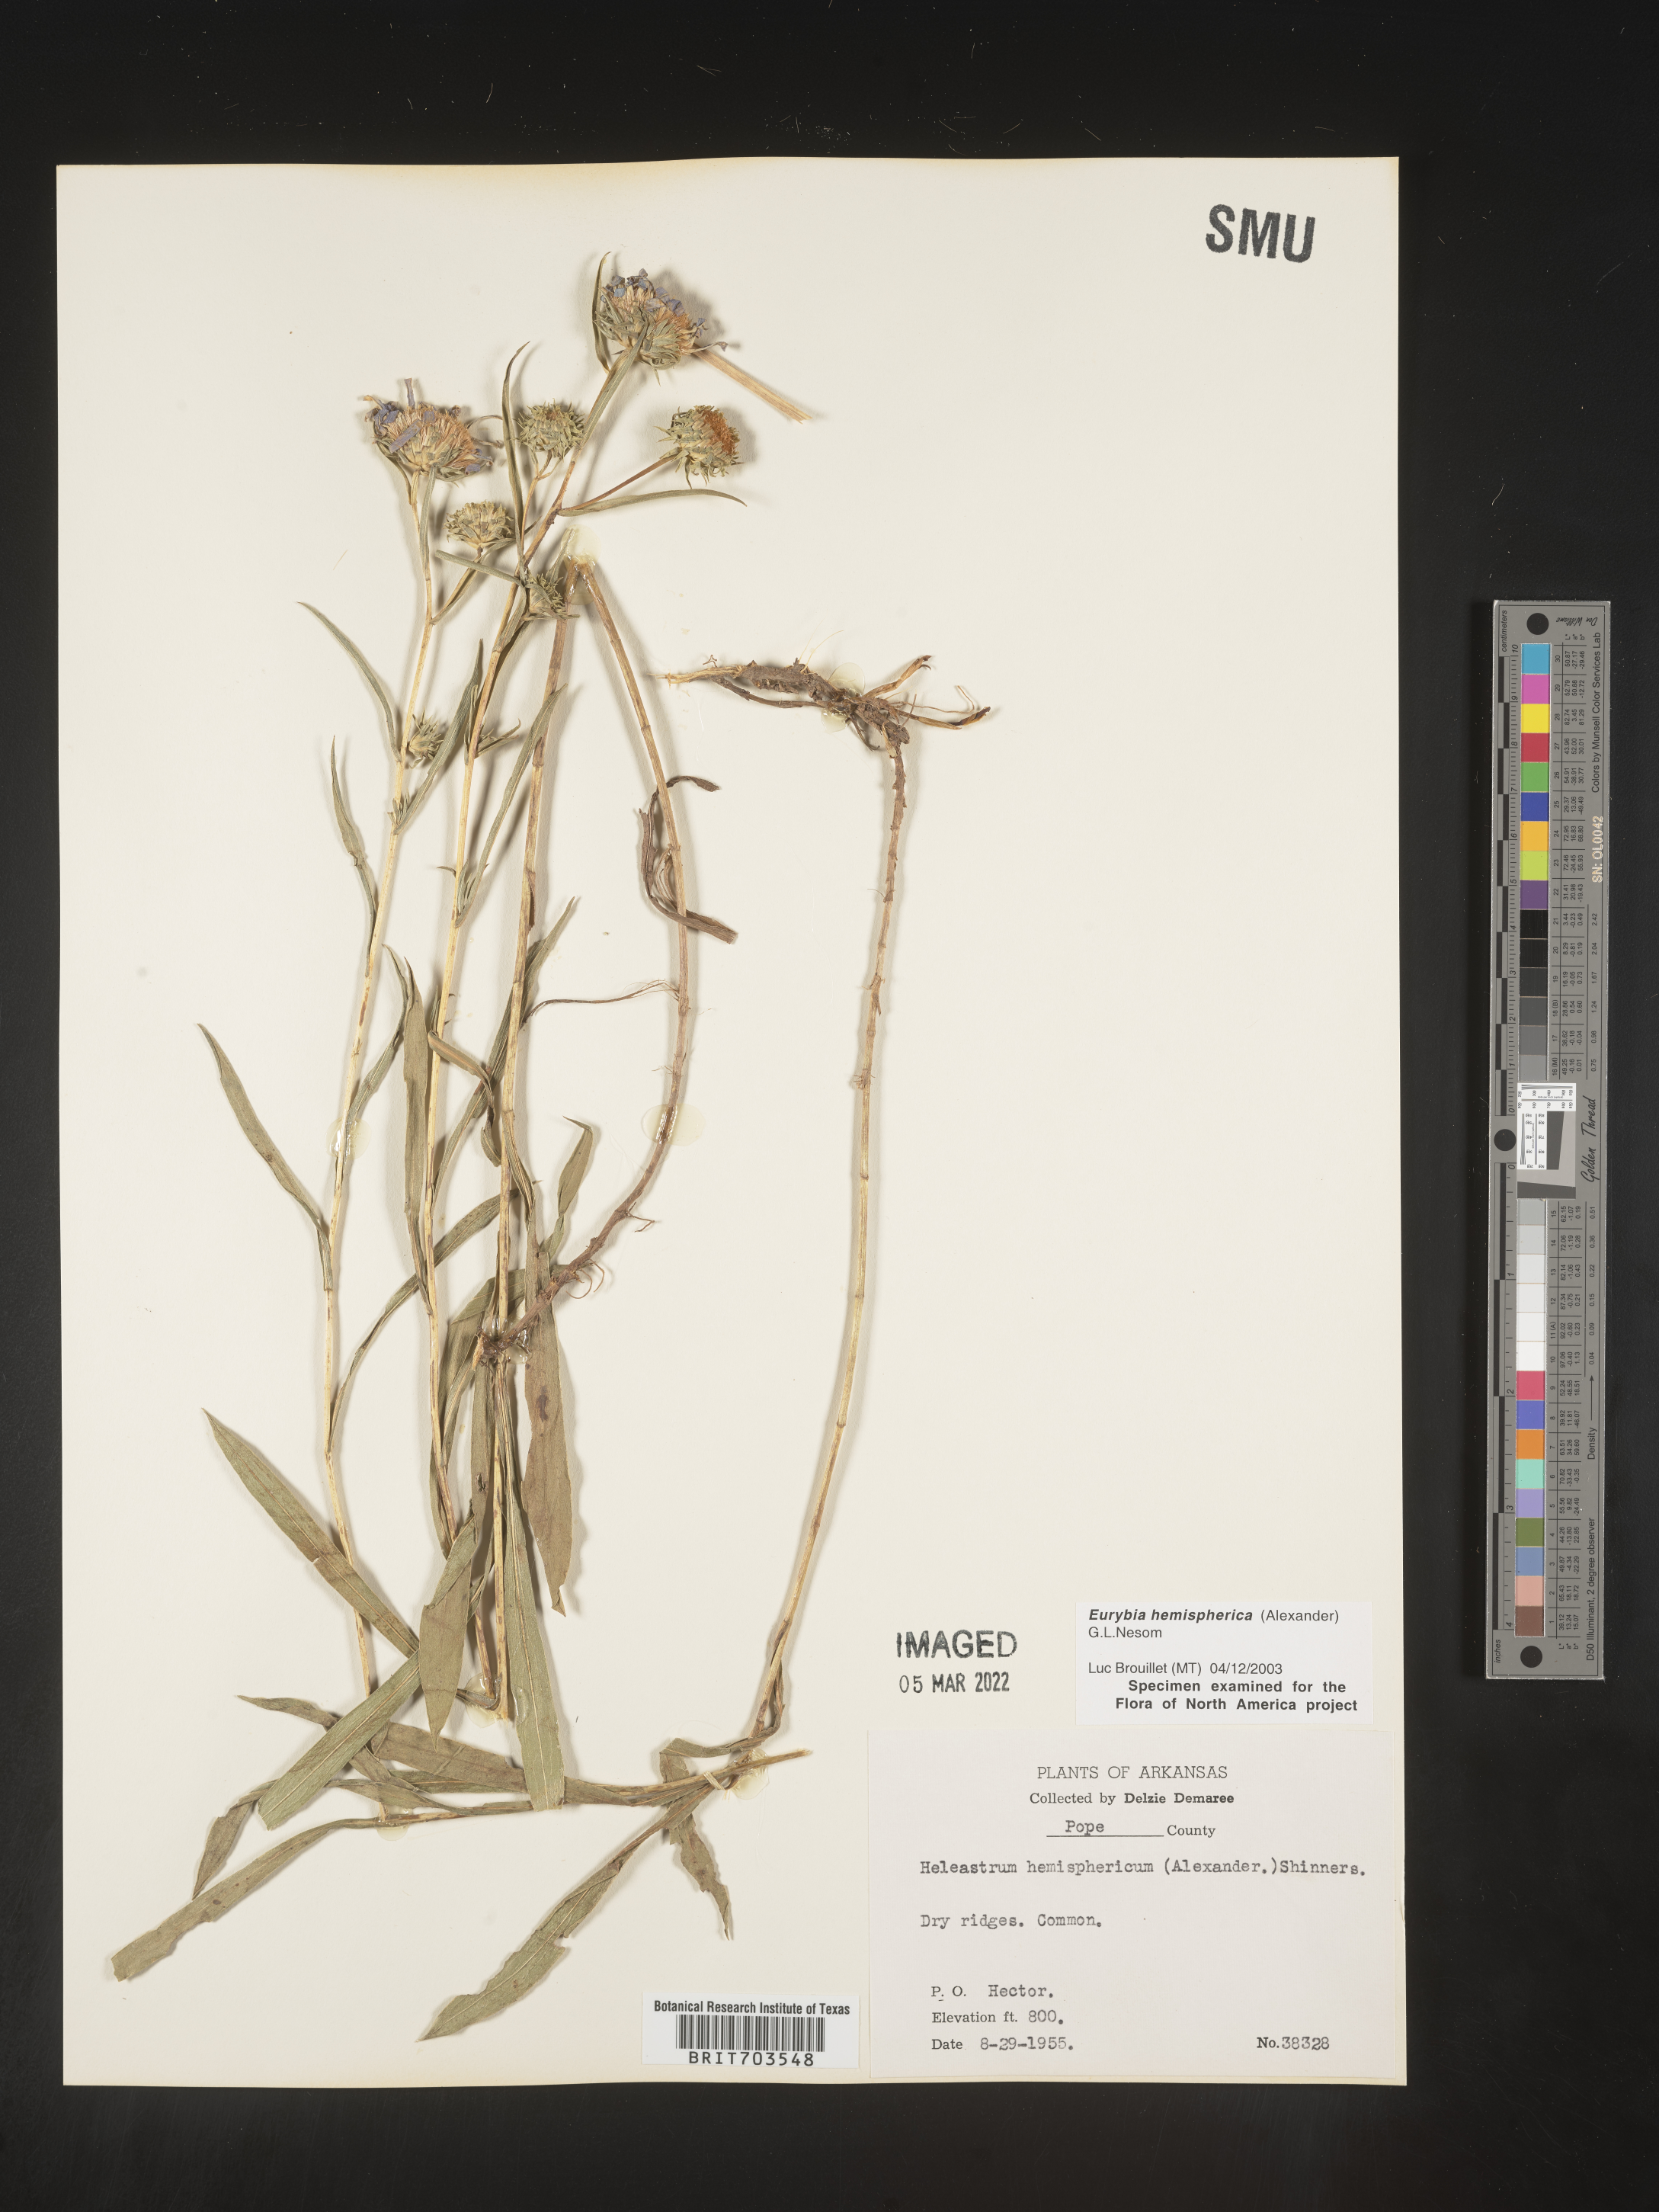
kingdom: Plantae
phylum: Tracheophyta
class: Magnoliopsida
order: Asterales
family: Asteraceae
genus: Eurybia
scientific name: Eurybia hemispherica
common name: Showy aster
